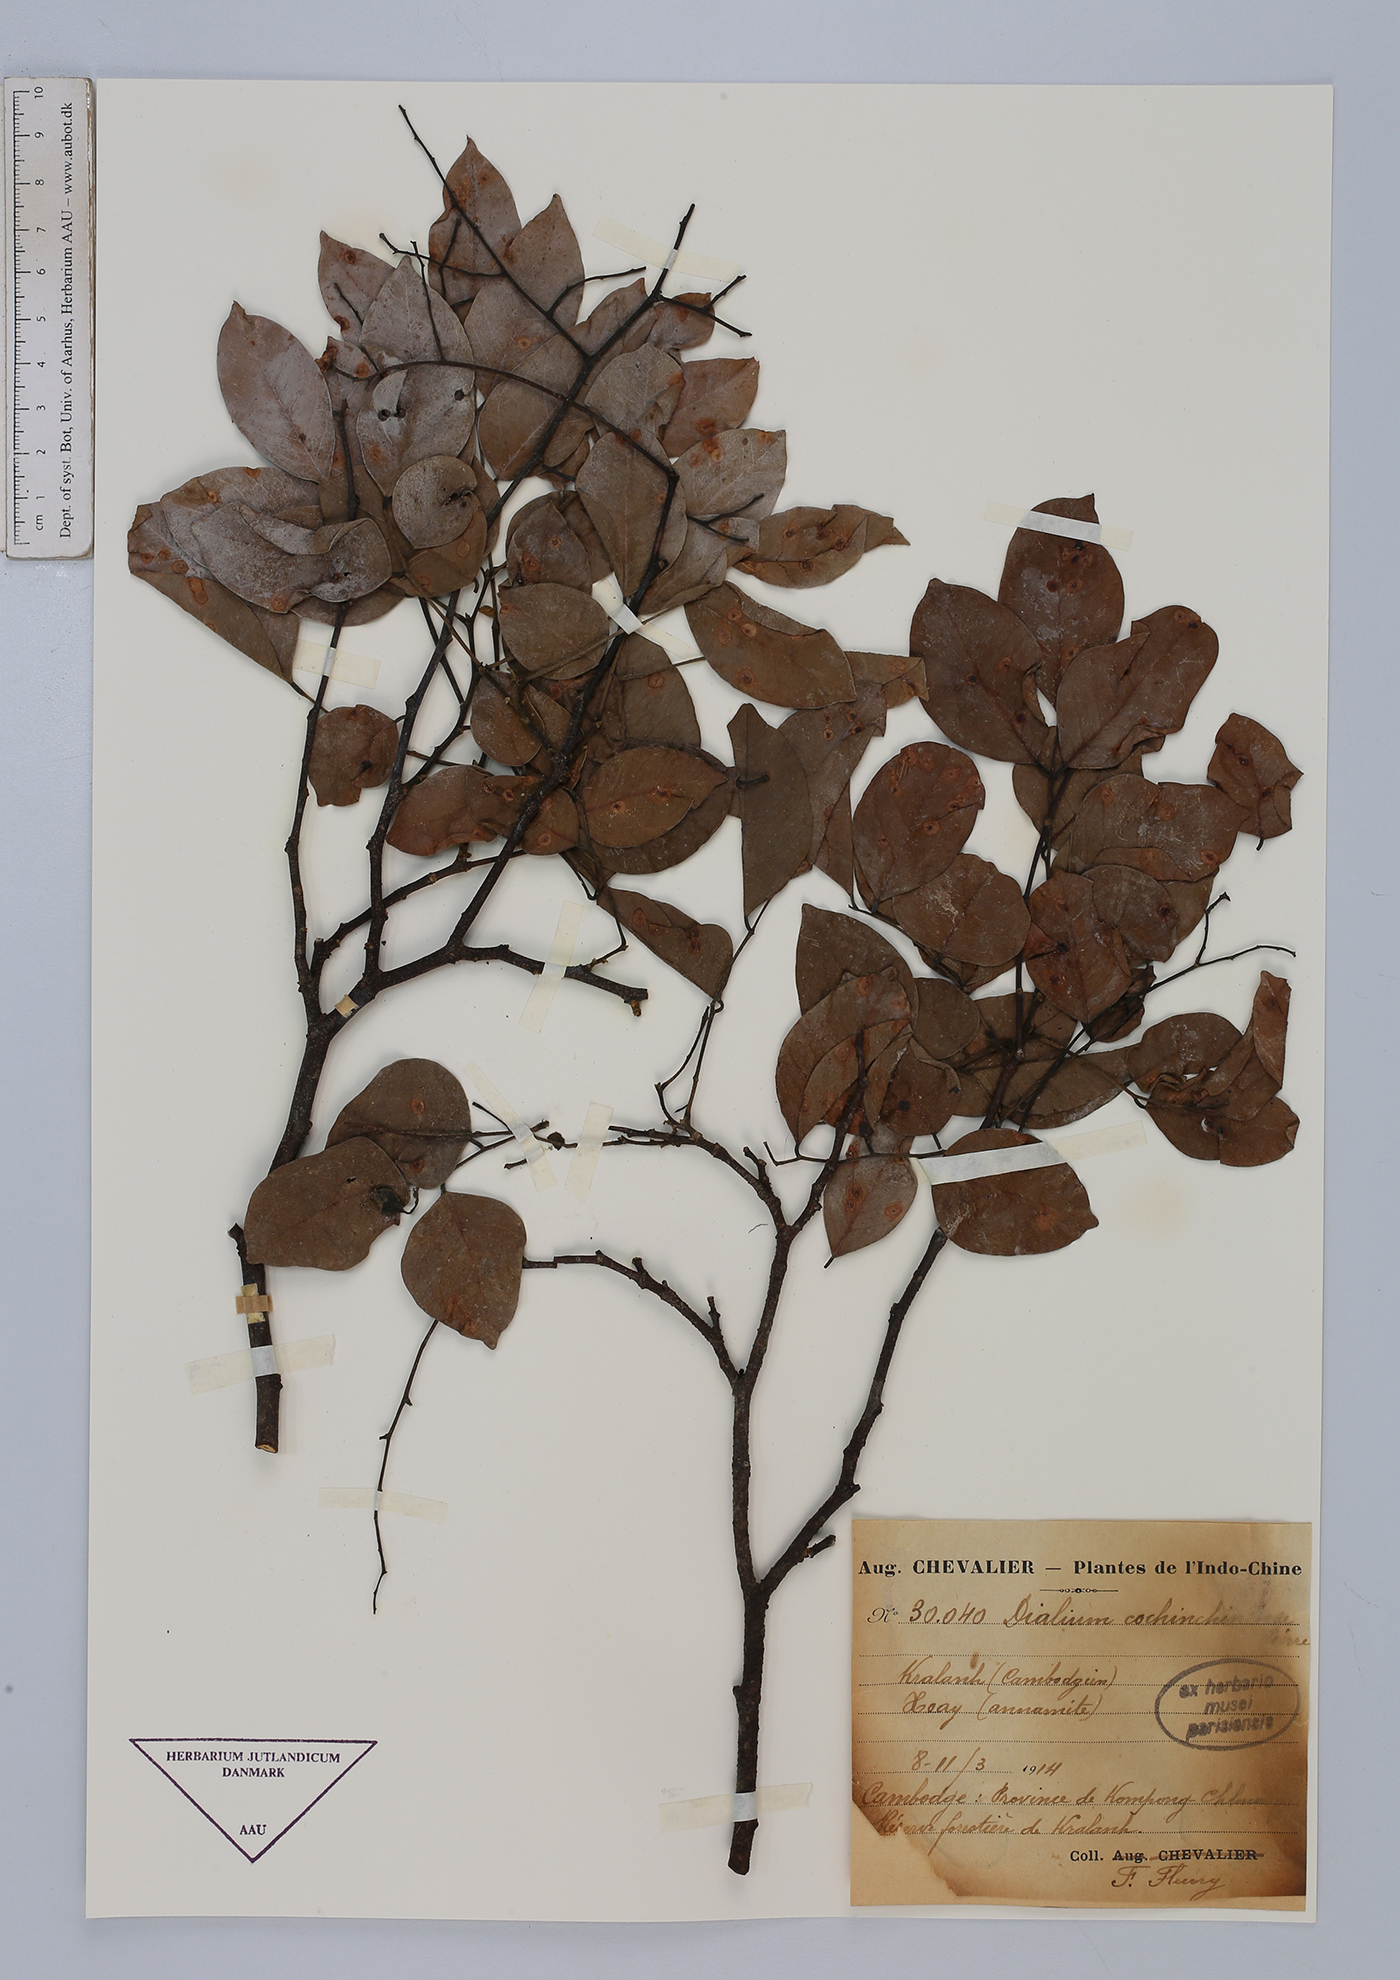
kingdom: Plantae
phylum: Tracheophyta
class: Magnoliopsida
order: Fabales
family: Fabaceae
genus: Dialium
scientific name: Dialium cochinchinense
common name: Velvet tamarind
